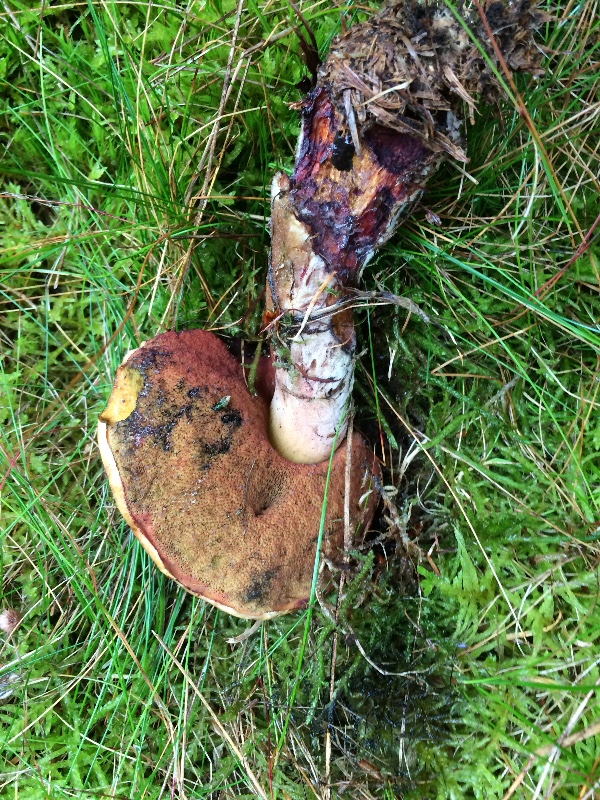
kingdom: Fungi
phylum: Basidiomycota
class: Agaricomycetes
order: Boletales
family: Boletaceae
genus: Neoboletus
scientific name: Neoboletus erythropus
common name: punktstokket indigorørhat
